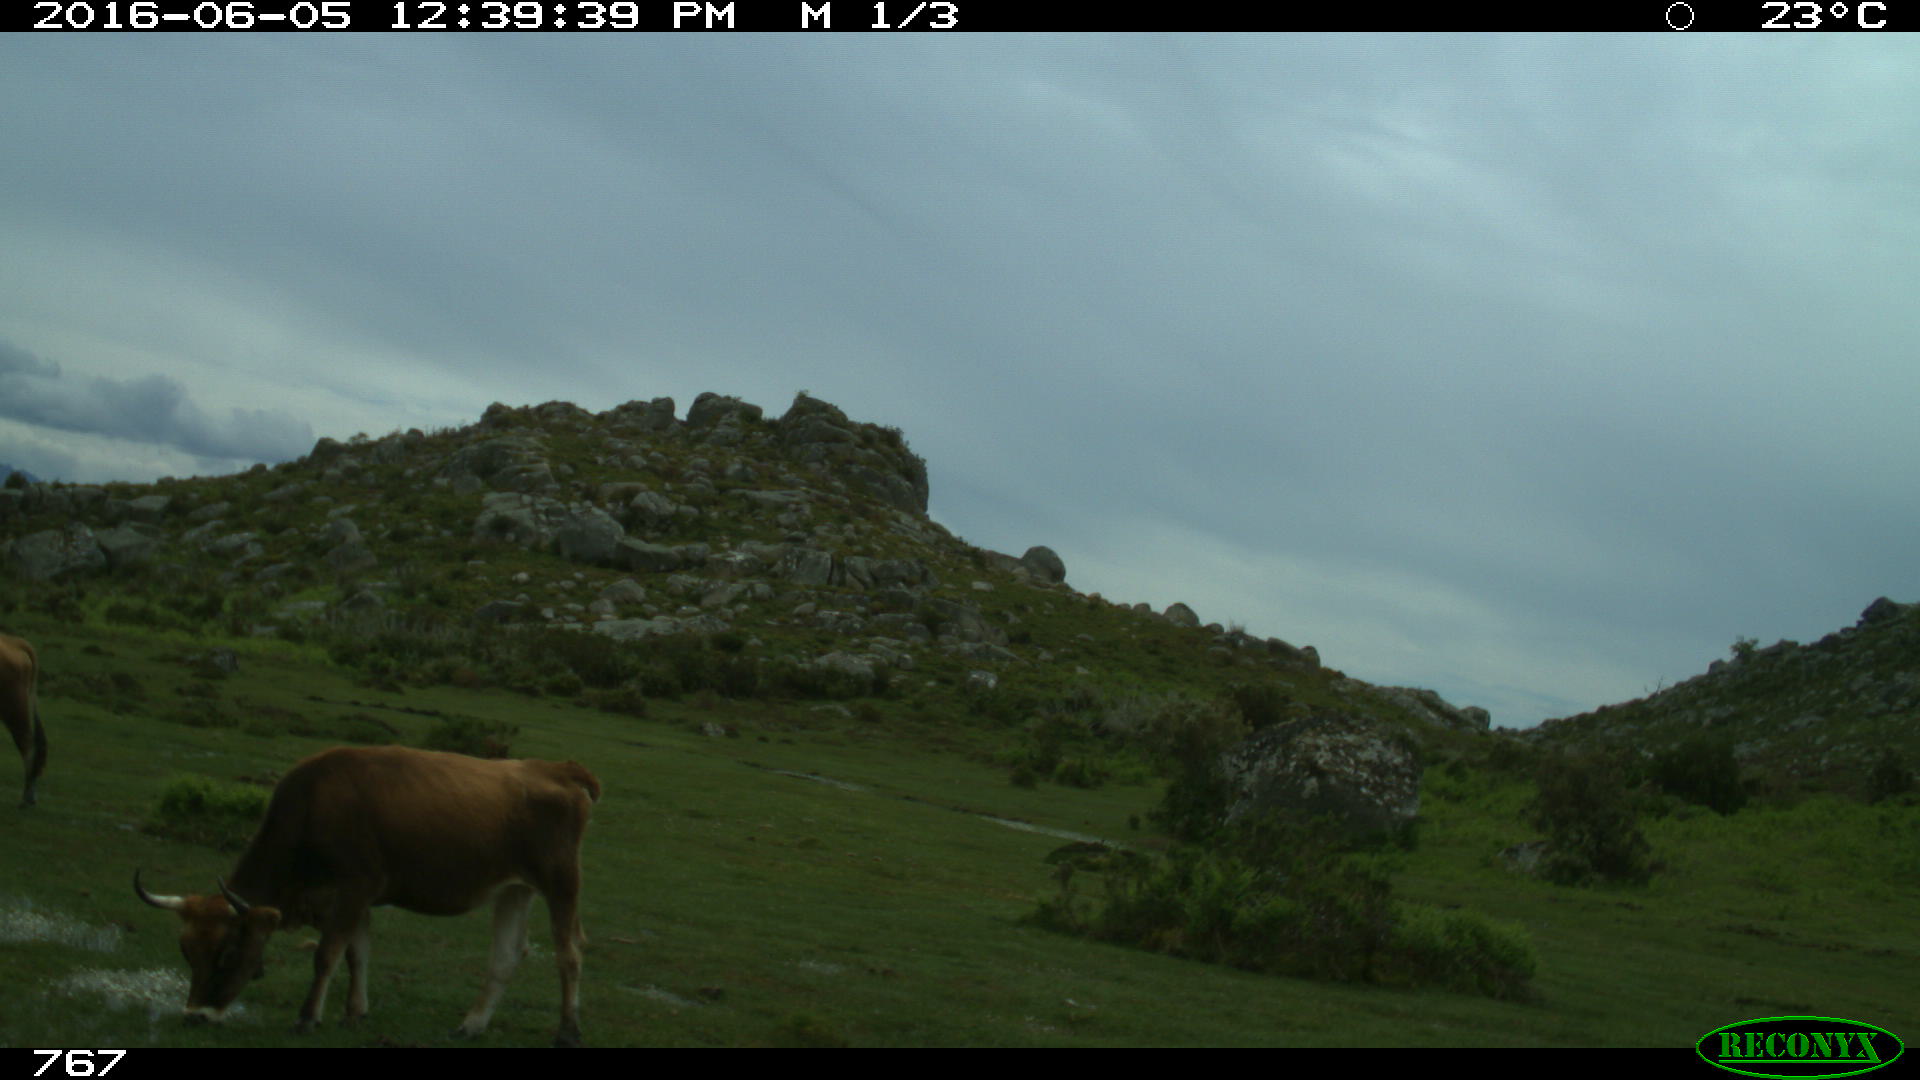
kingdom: Animalia
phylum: Chordata
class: Mammalia
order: Artiodactyla
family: Bovidae
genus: Bos
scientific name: Bos taurus
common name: Domesticated cattle
